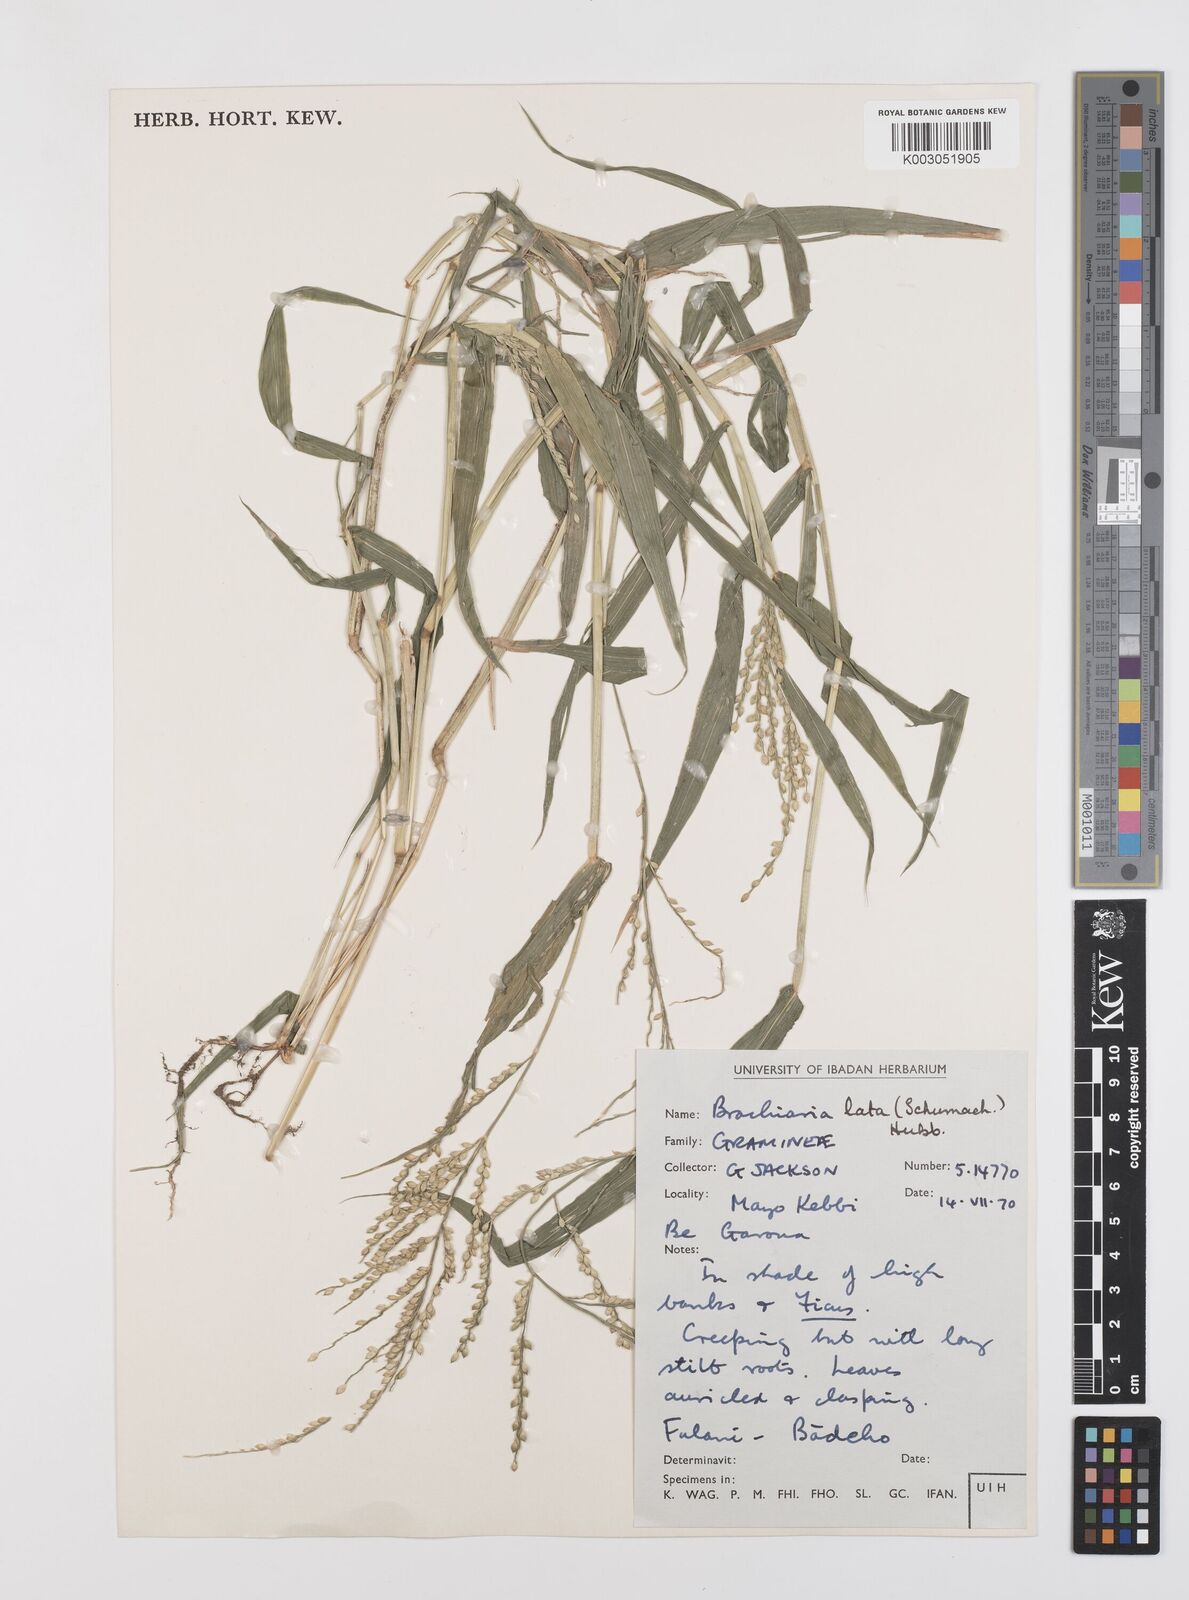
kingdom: Plantae
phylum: Tracheophyta
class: Liliopsida
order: Poales
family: Poaceae
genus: Urochloa
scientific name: Urochloa lata
